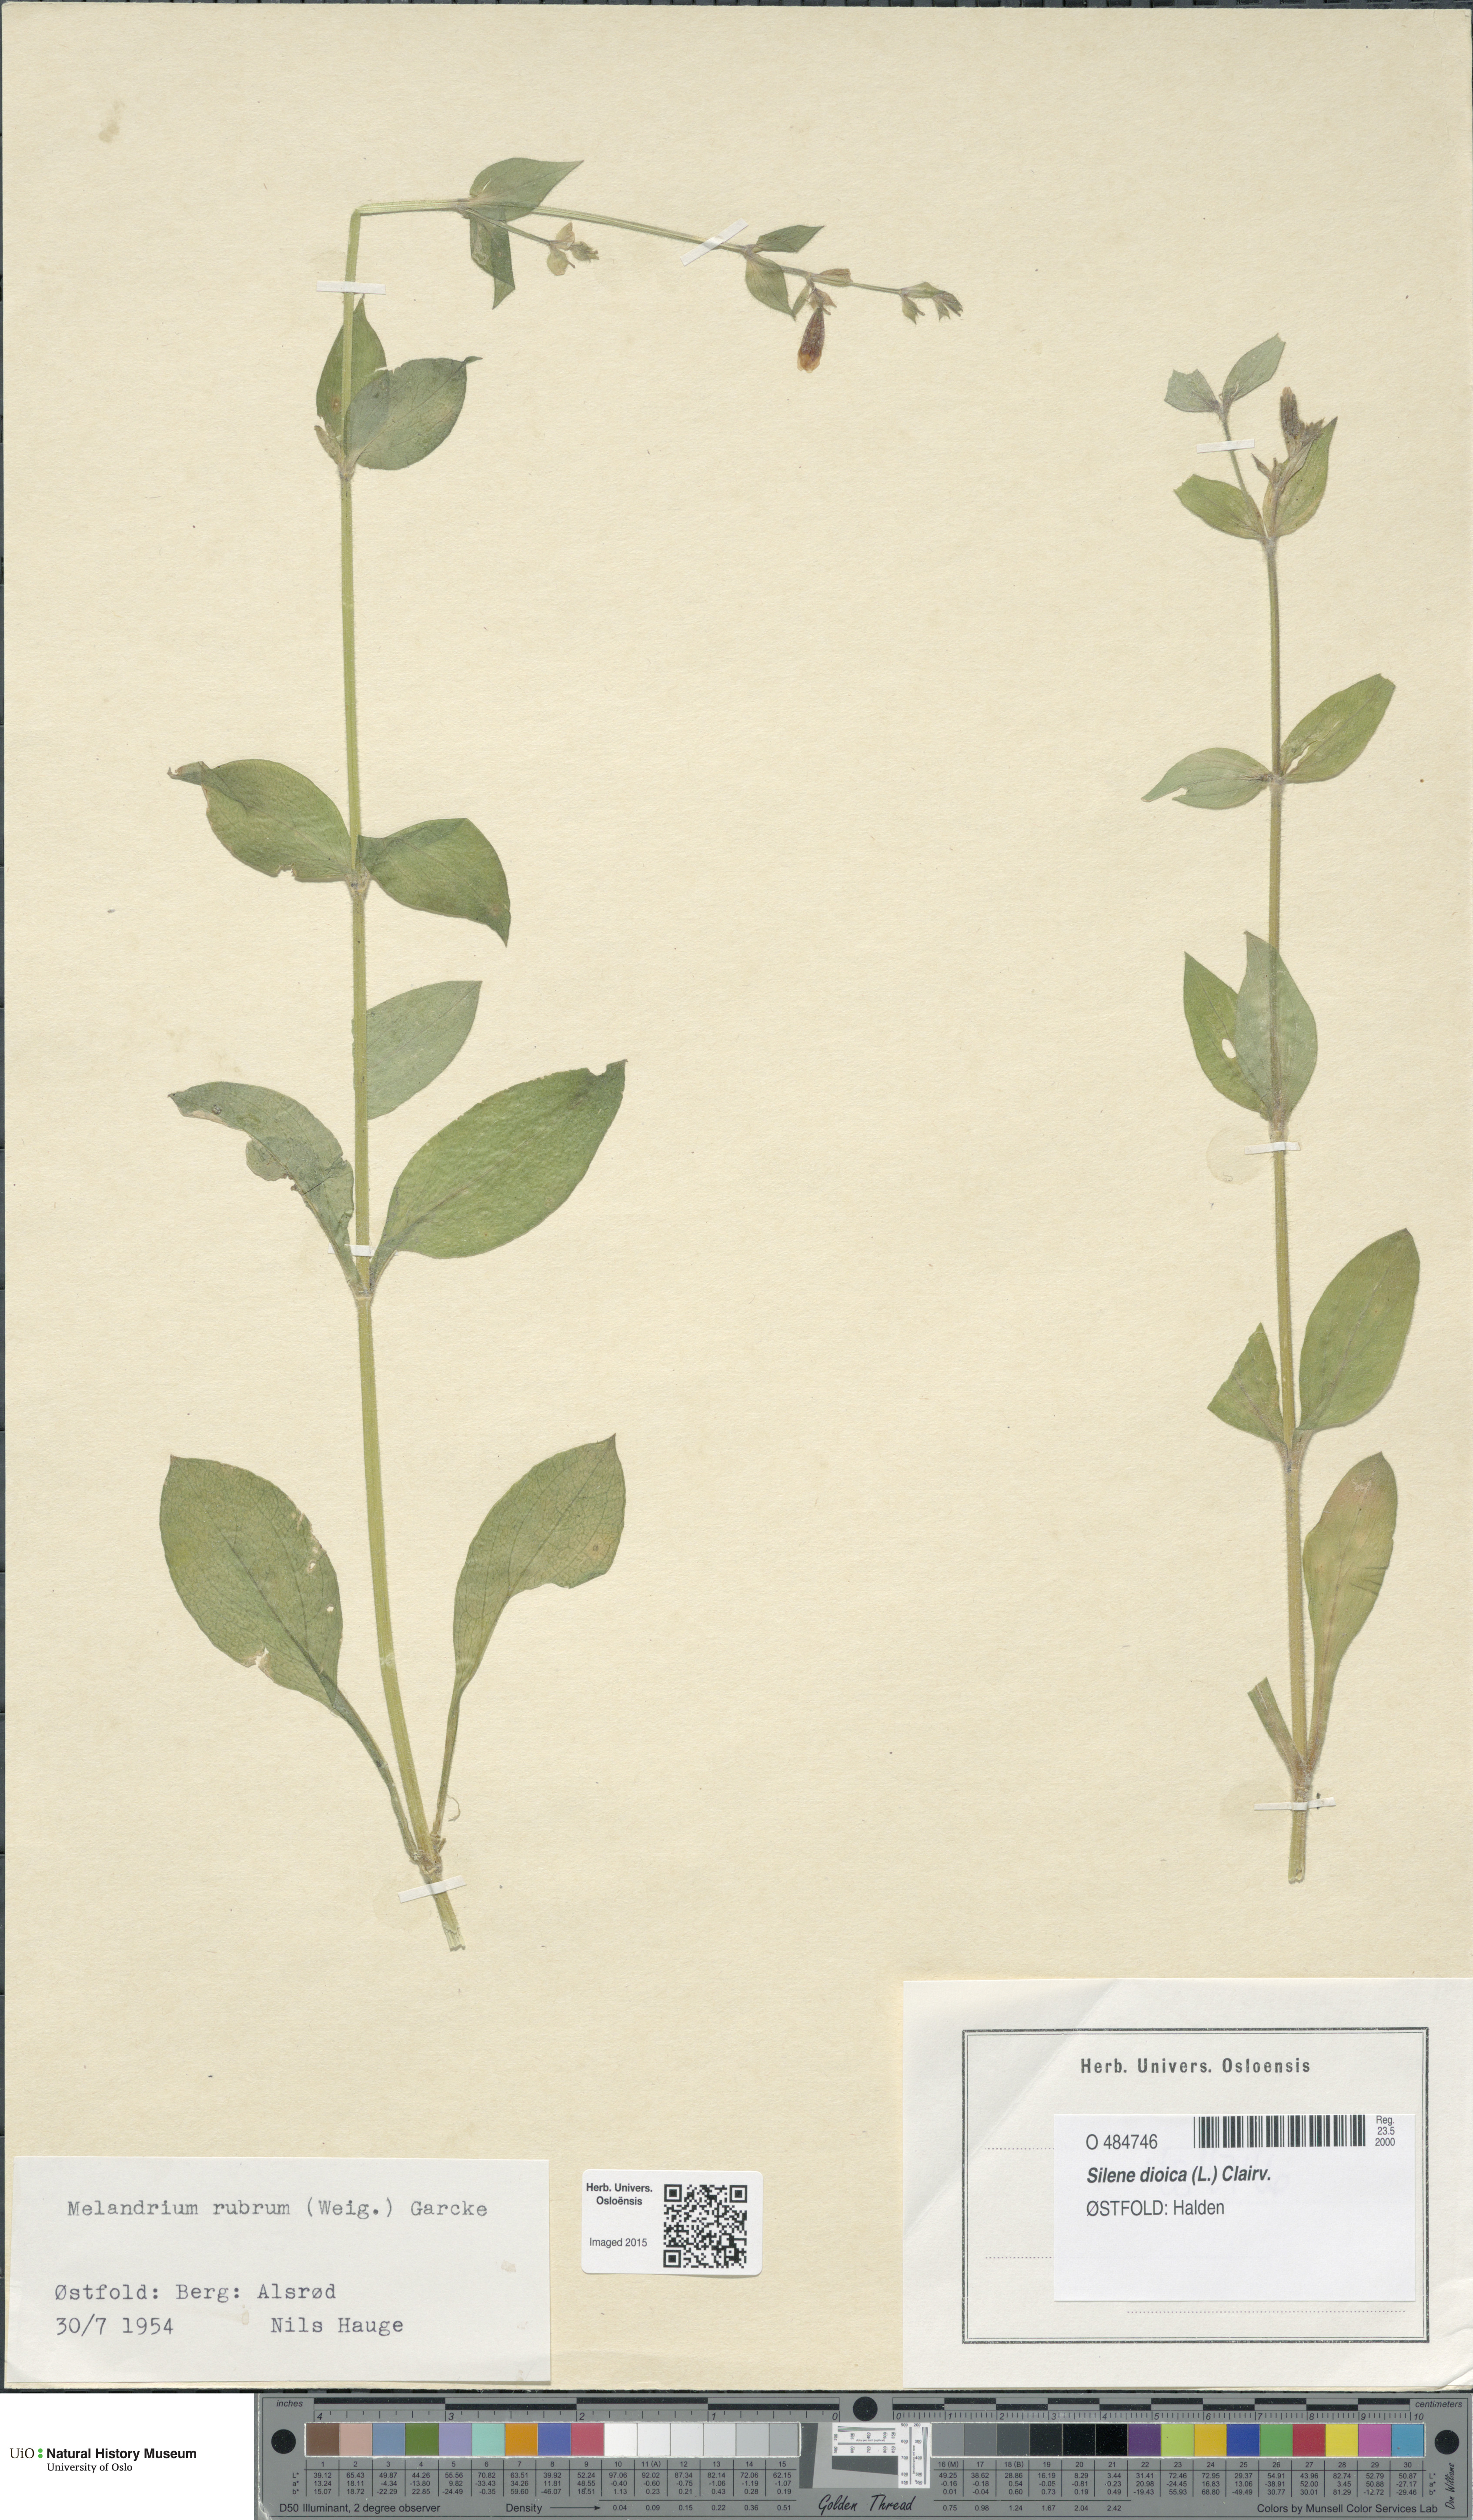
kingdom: Plantae
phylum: Tracheophyta
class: Magnoliopsida
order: Caryophyllales
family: Caryophyllaceae
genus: Silene
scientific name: Silene dioica
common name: Red campion
